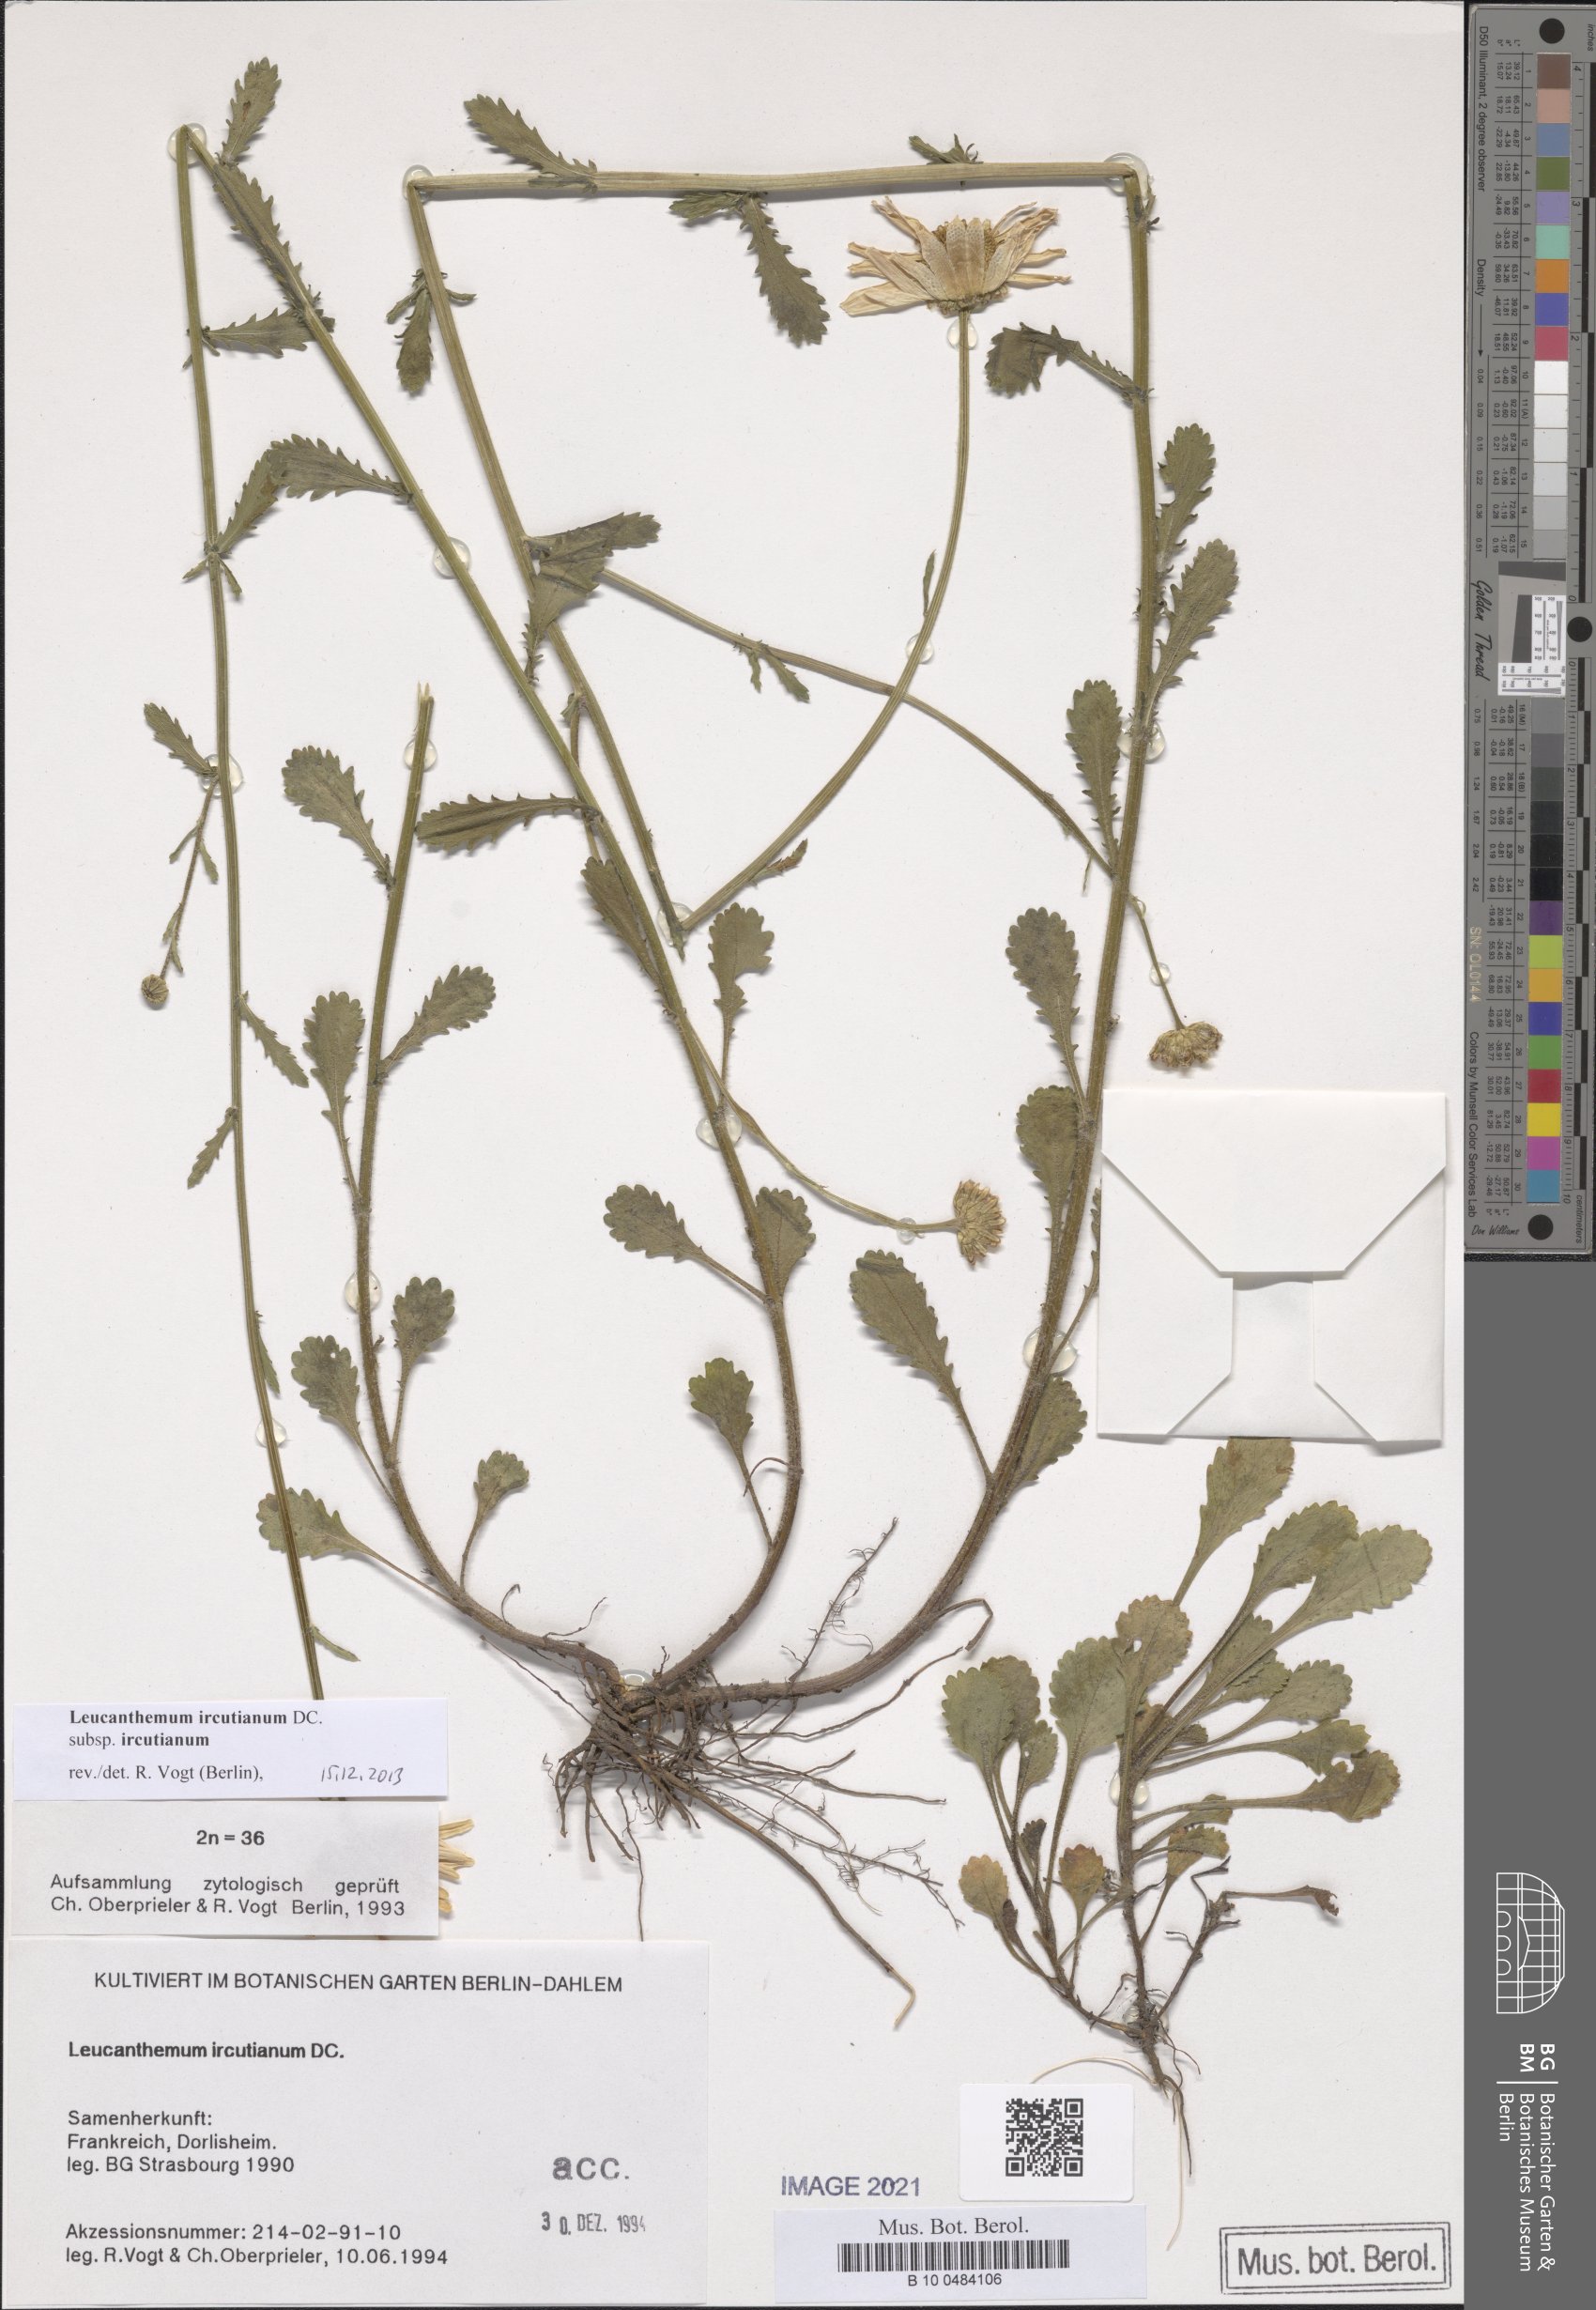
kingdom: Plantae
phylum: Tracheophyta
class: Magnoliopsida
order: Asterales
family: Asteraceae
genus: Leucanthemum
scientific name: Leucanthemum ircutianum
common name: Daisy
